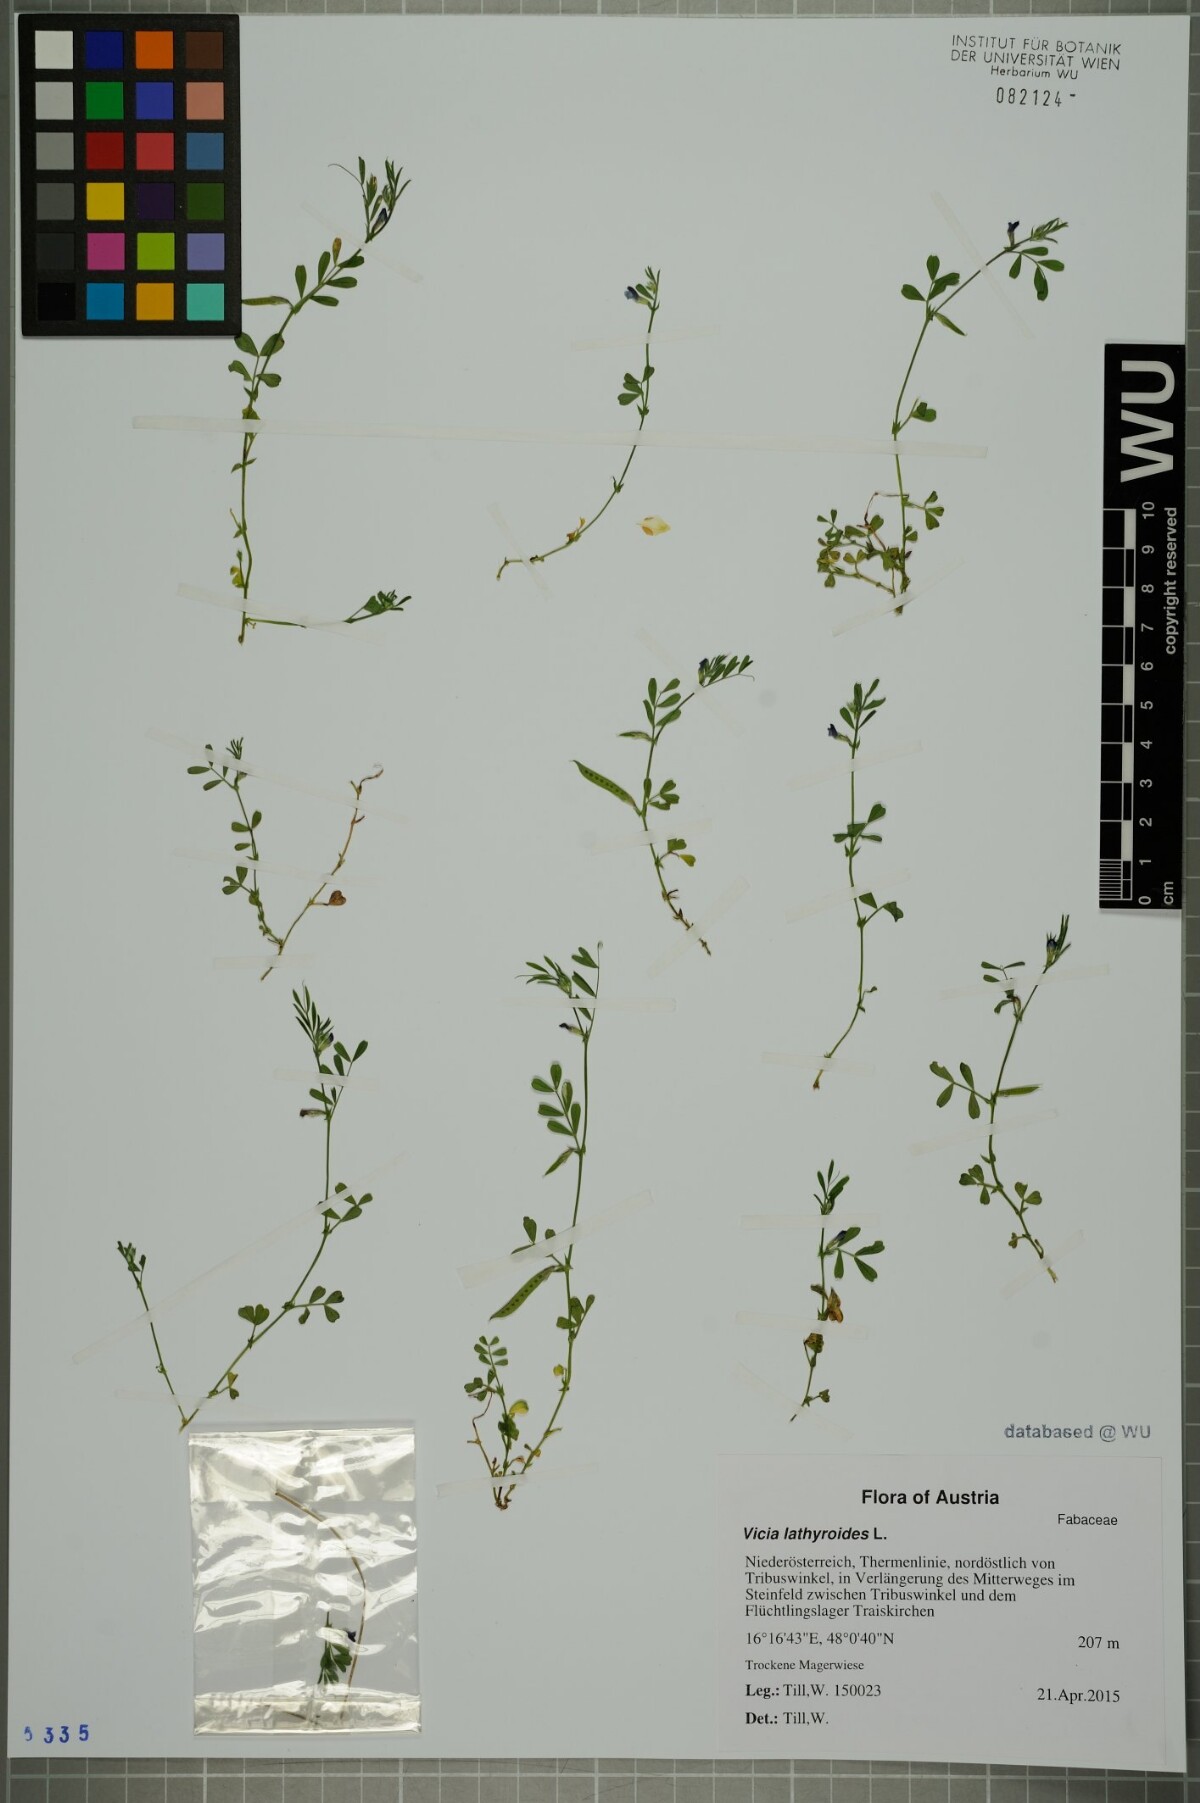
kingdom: Plantae
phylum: Tracheophyta
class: Magnoliopsida
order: Fabales
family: Fabaceae
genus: Vicia
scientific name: Vicia lathyroides
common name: Spring vetch
